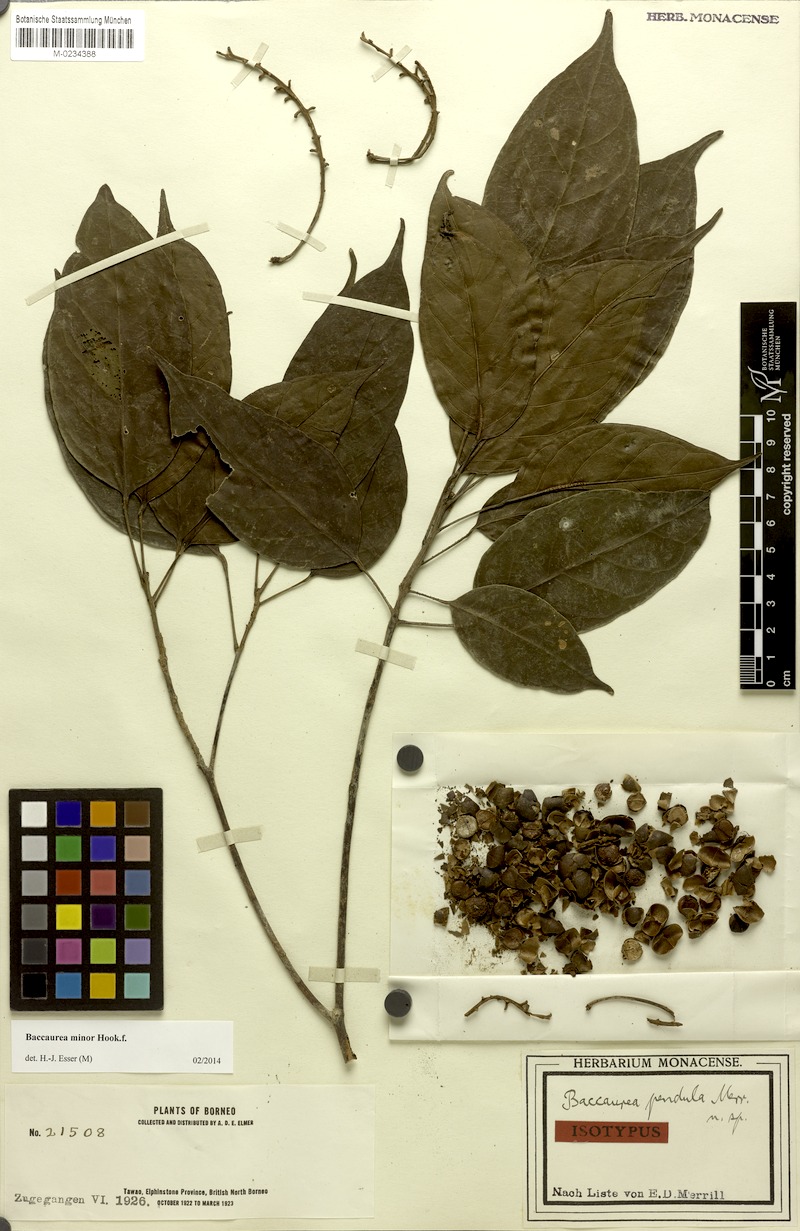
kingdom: Plantae
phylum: Tracheophyta
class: Magnoliopsida
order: Malpighiales
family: Phyllanthaceae
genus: Baccaurea
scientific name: Baccaurea minor
